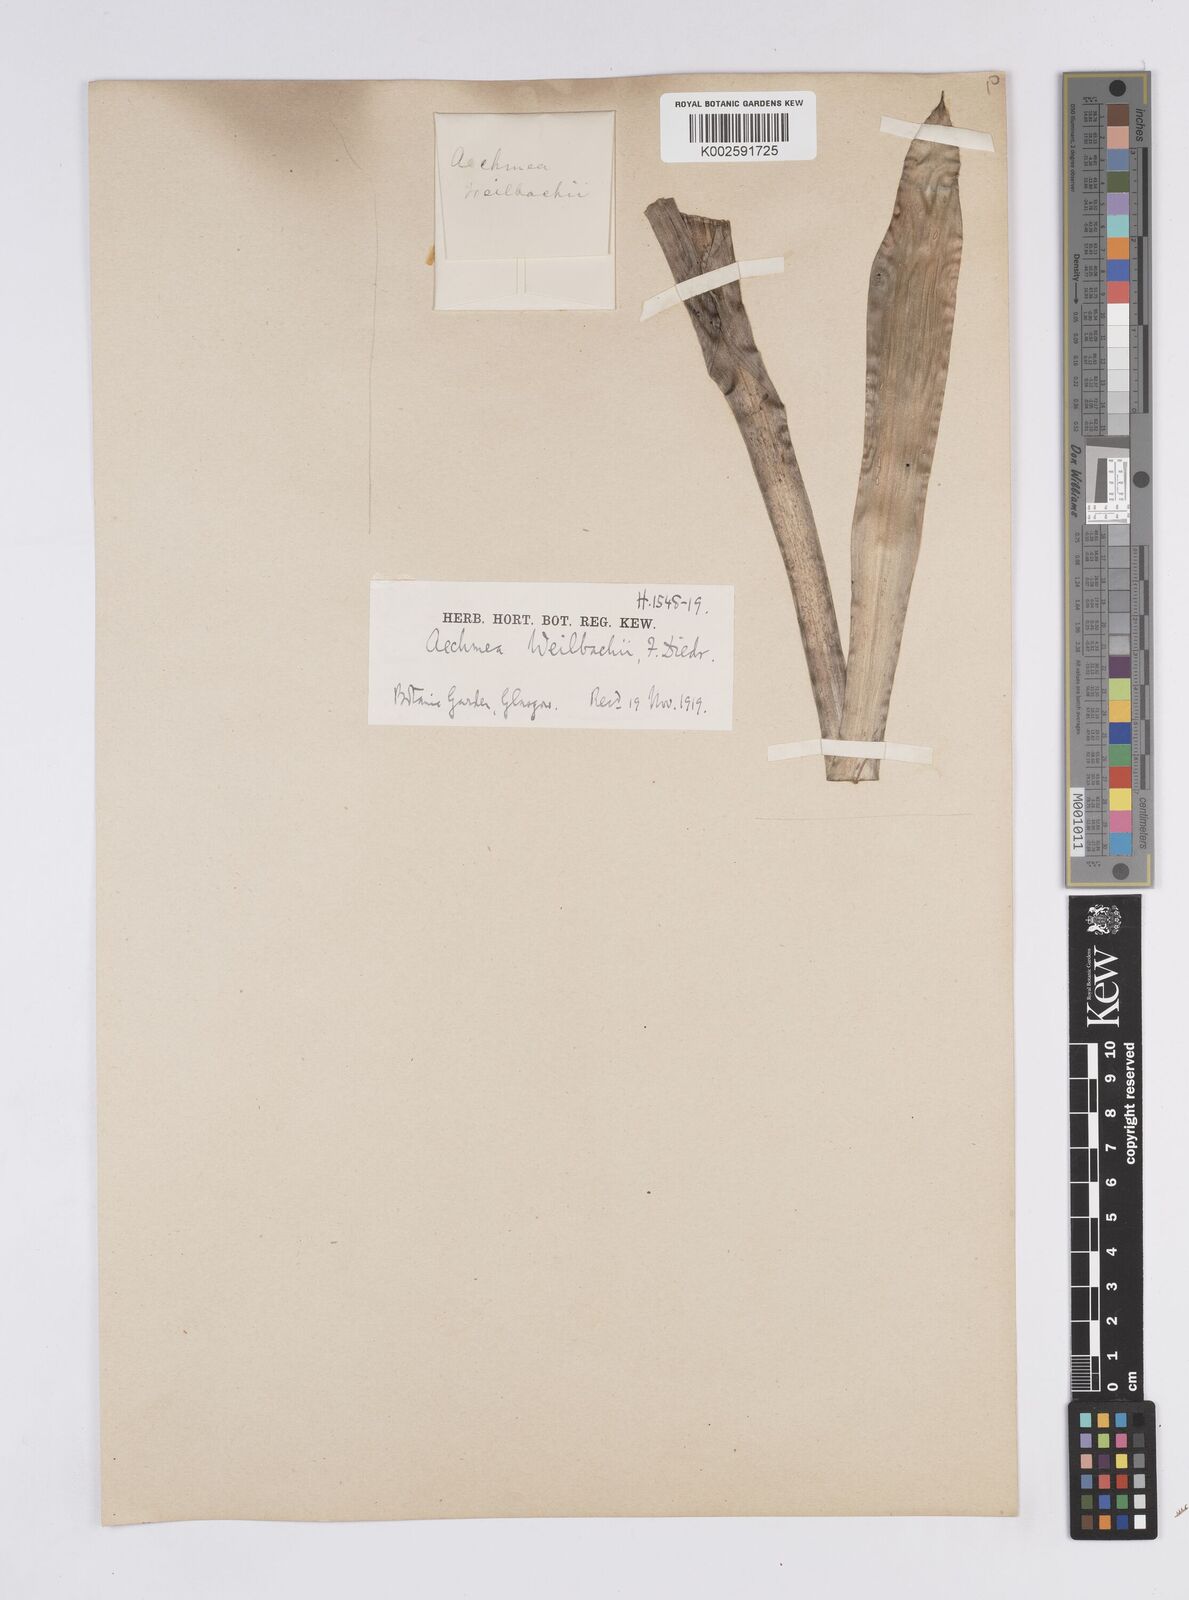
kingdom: Plantae
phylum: Tracheophyta
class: Liliopsida
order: Poales
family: Bromeliaceae
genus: Aechmea
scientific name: Aechmea weilbachii
